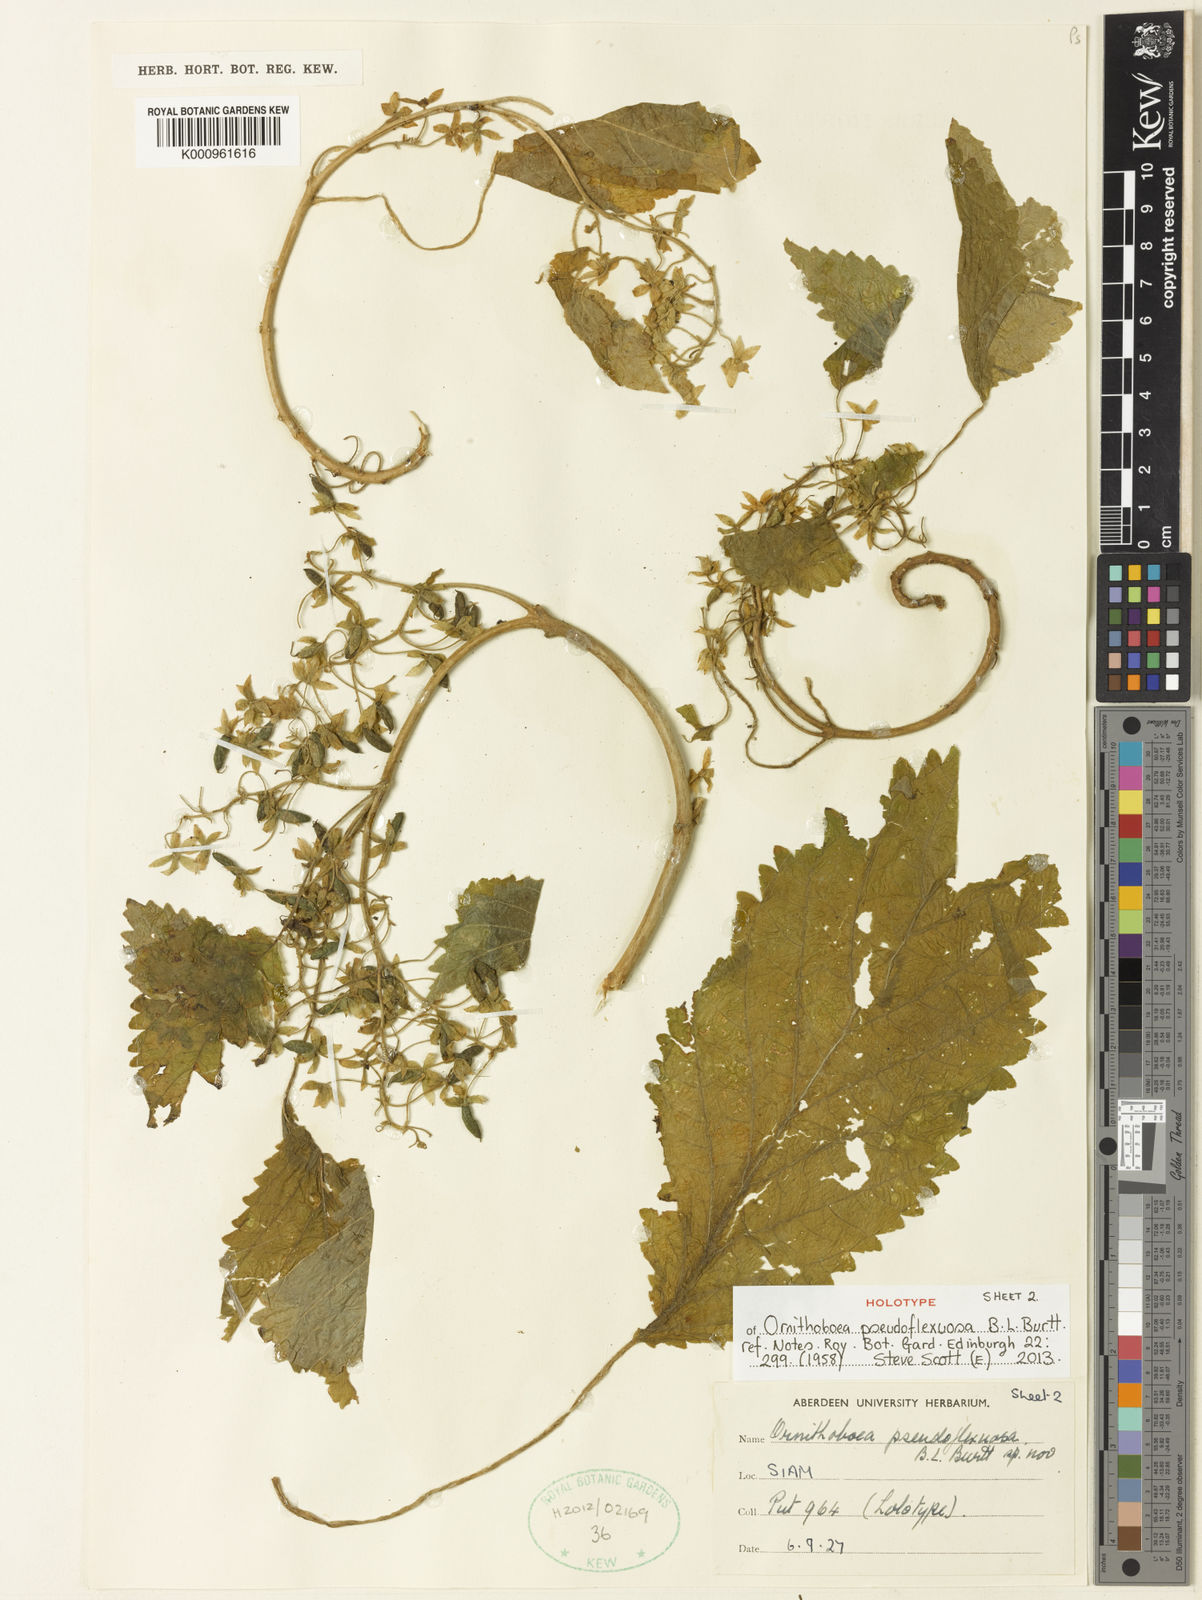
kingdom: Plantae
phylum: Tracheophyta
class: Magnoliopsida
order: Lamiales
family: Gesneriaceae
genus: Ornithoboea
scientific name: Ornithoboea pseudoflexuosa
